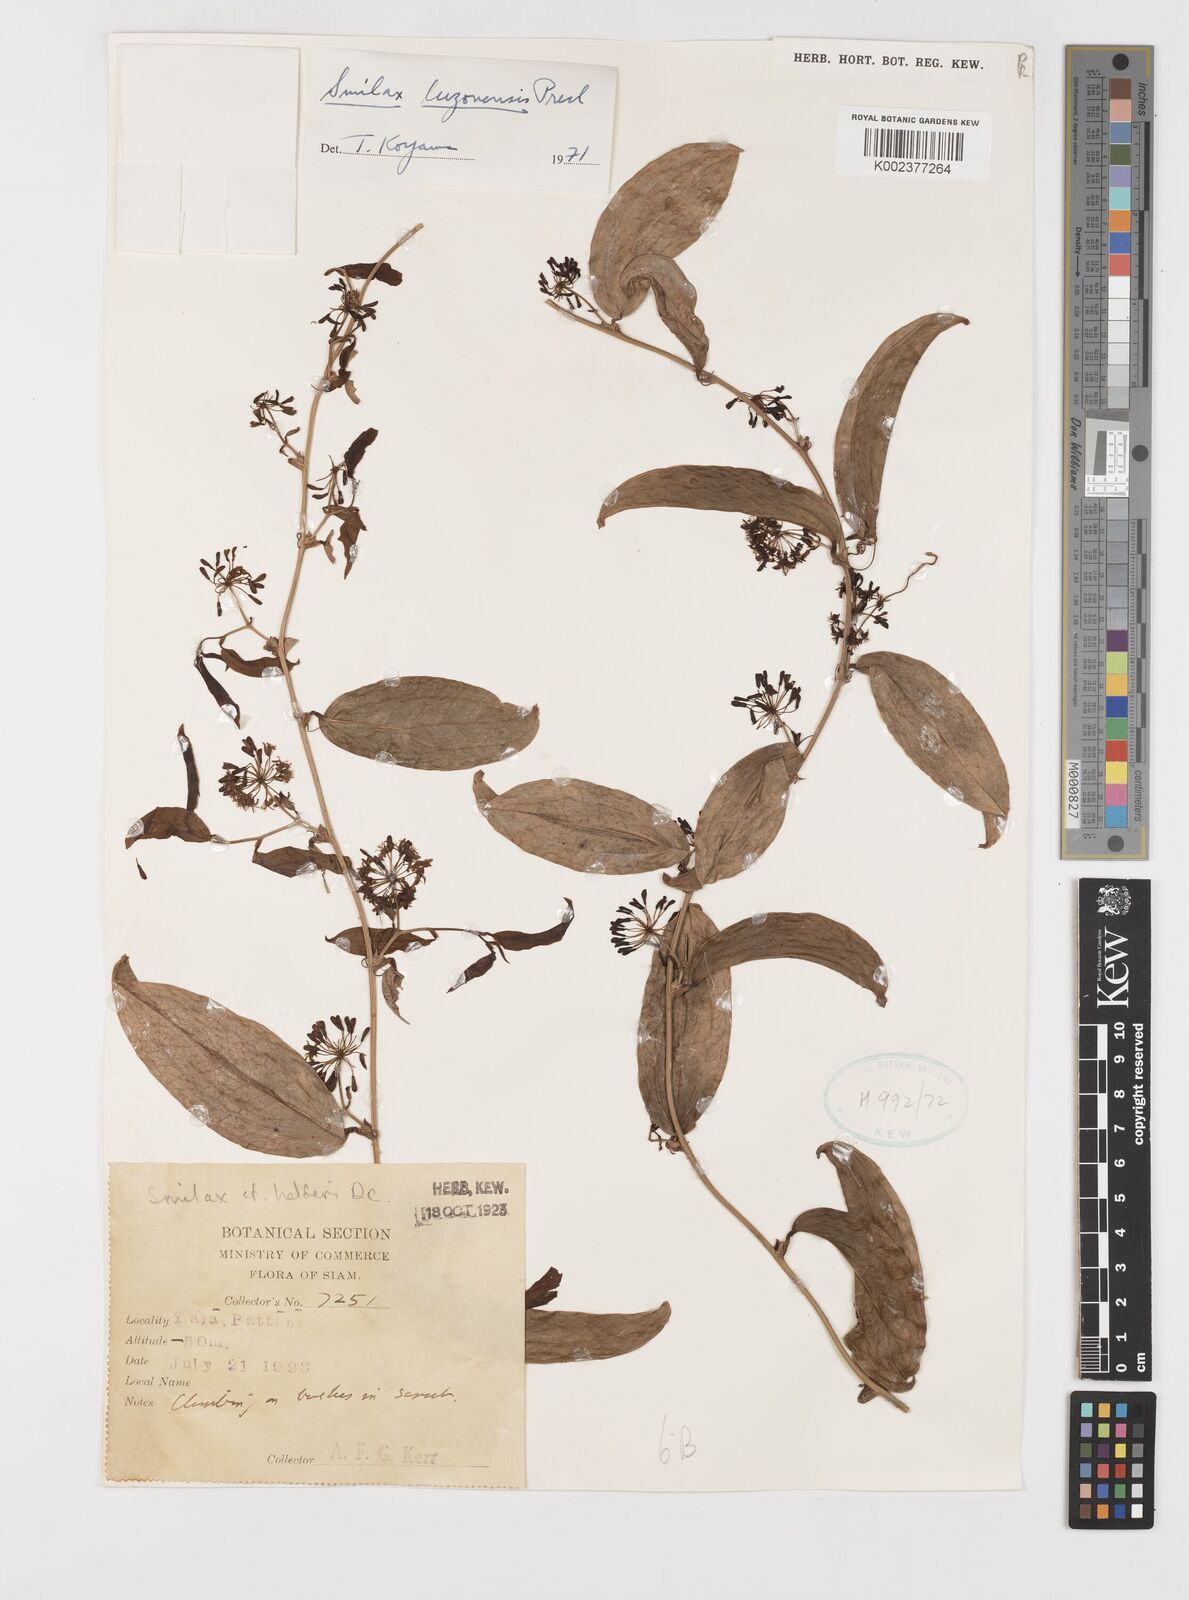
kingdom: Plantae
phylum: Tracheophyta
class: Liliopsida
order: Liliales
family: Smilacaceae
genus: Smilax
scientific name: Smilax luzonensis
